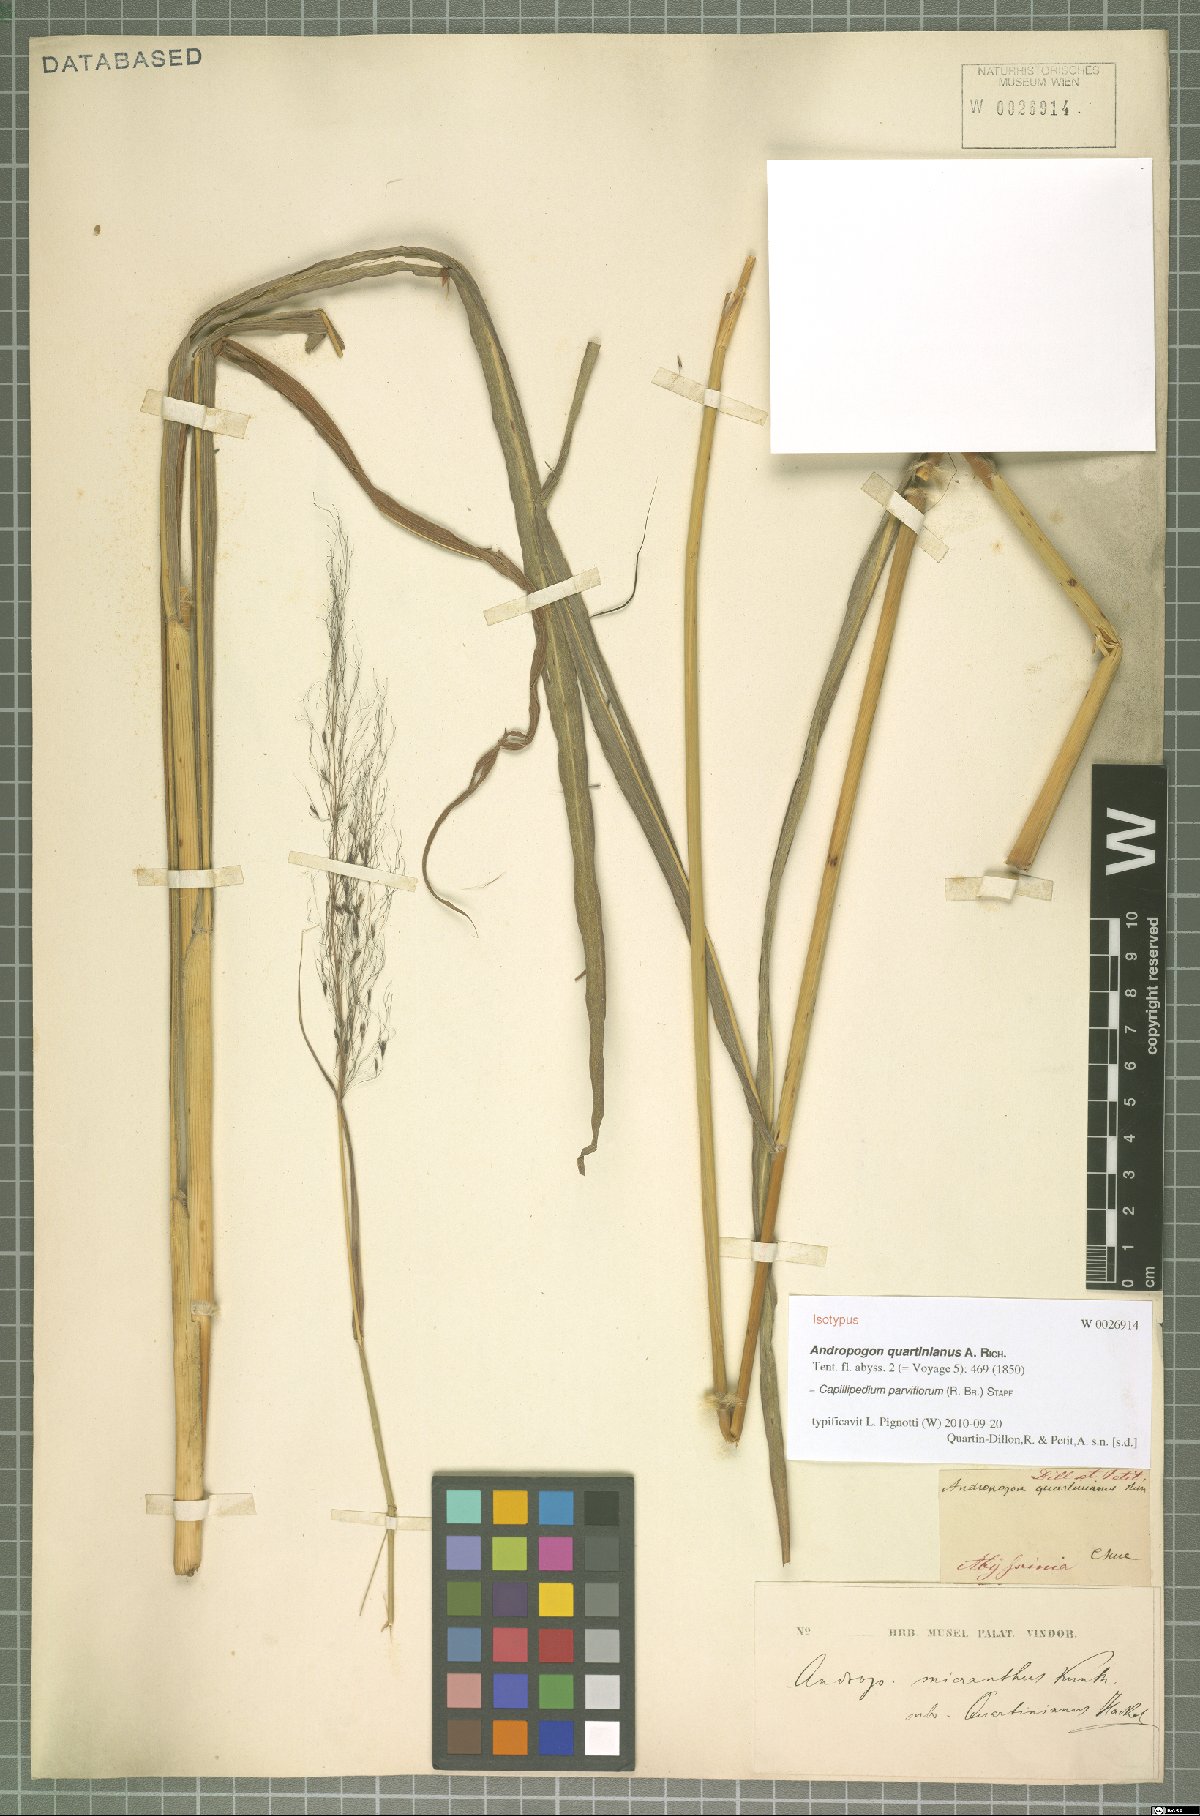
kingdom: Plantae
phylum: Tracheophyta
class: Liliopsida
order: Poales
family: Poaceae
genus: Capillipedium
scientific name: Capillipedium parviflorum
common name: Golden-beard
